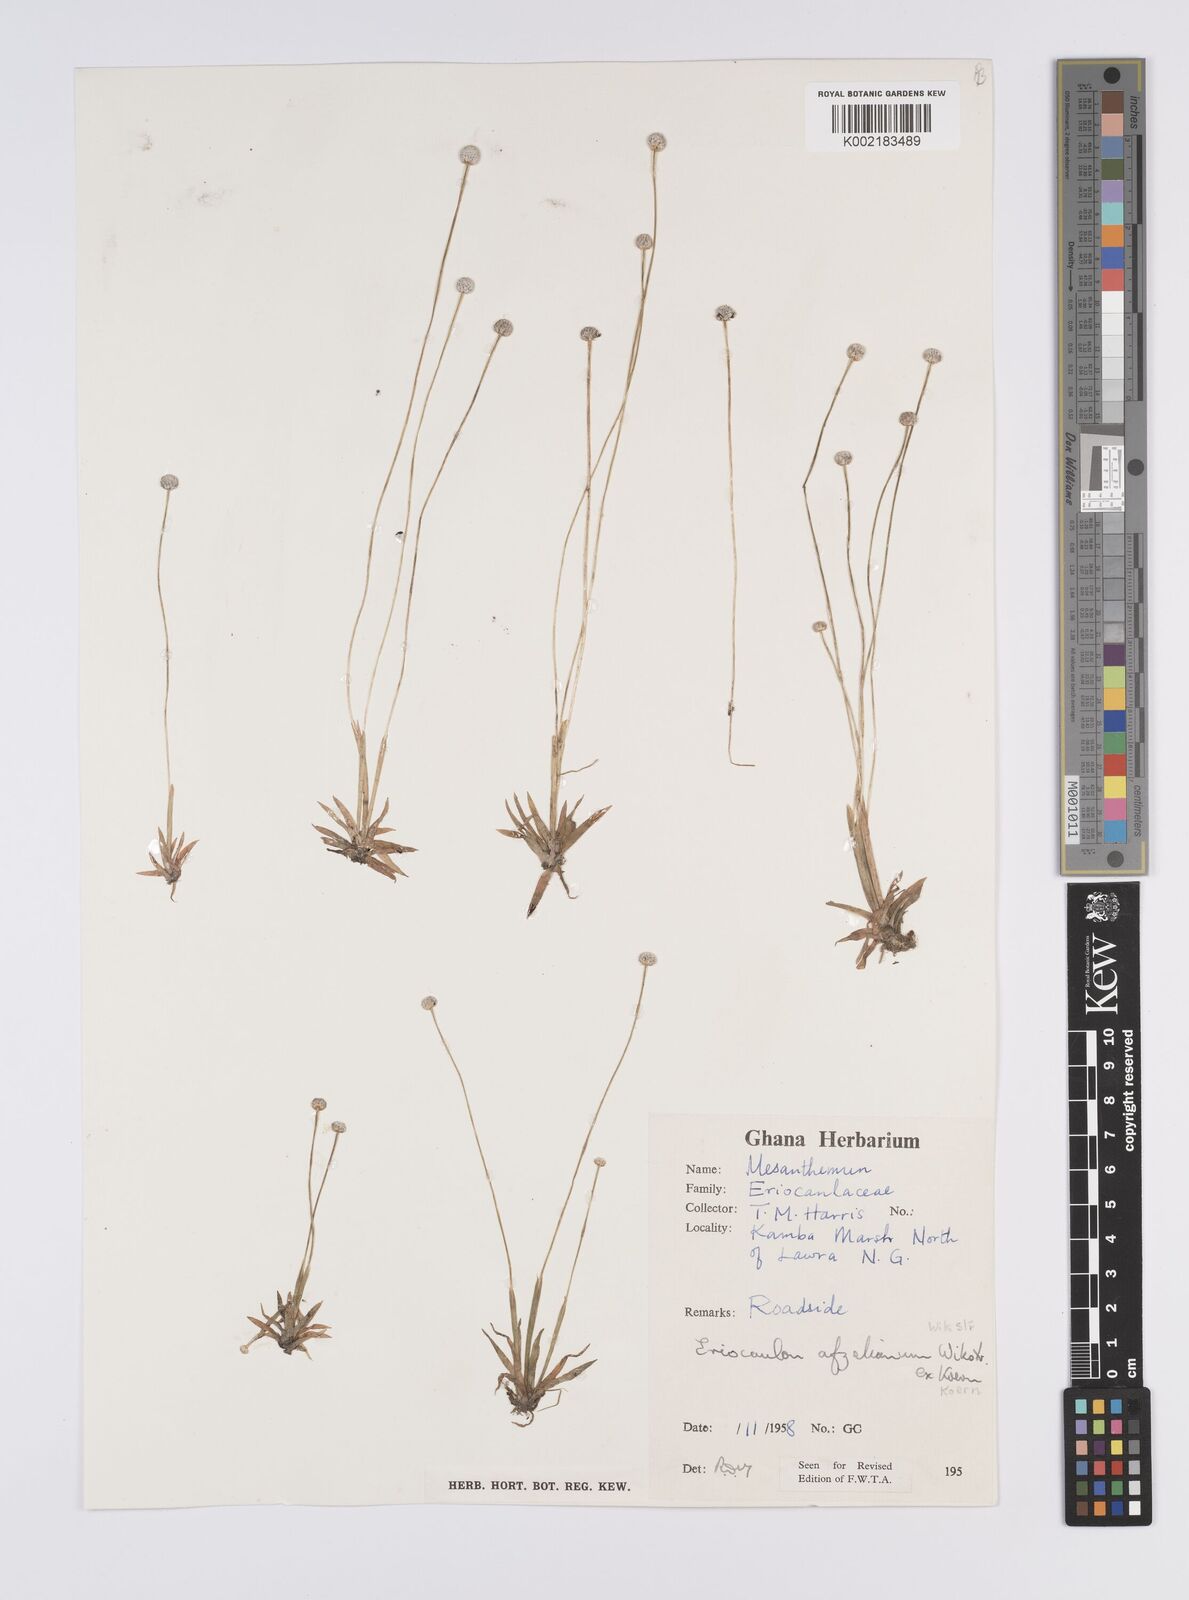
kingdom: Plantae
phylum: Tracheophyta
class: Liliopsida
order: Poales
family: Eriocaulaceae
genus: Eriocaulon
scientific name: Eriocaulon afzelianum
